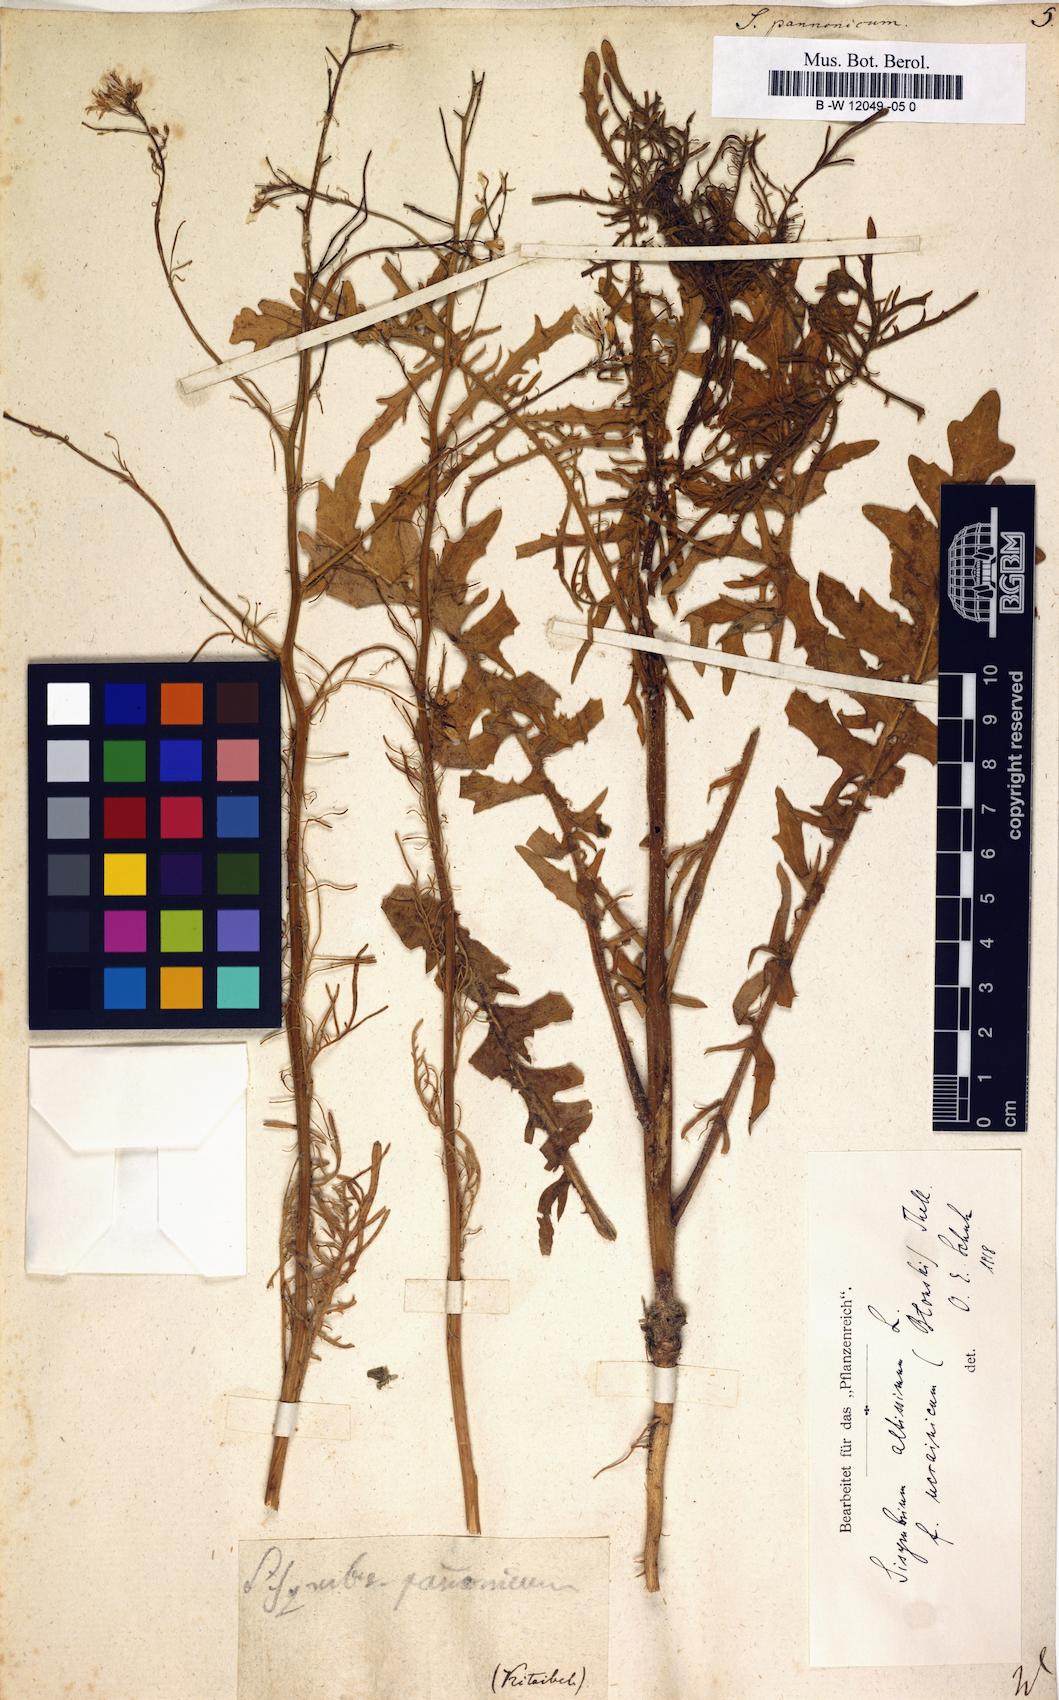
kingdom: Plantae
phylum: Tracheophyta
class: Magnoliopsida
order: Brassicales
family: Brassicaceae
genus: Sisymbrium
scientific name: Sisymbrium
